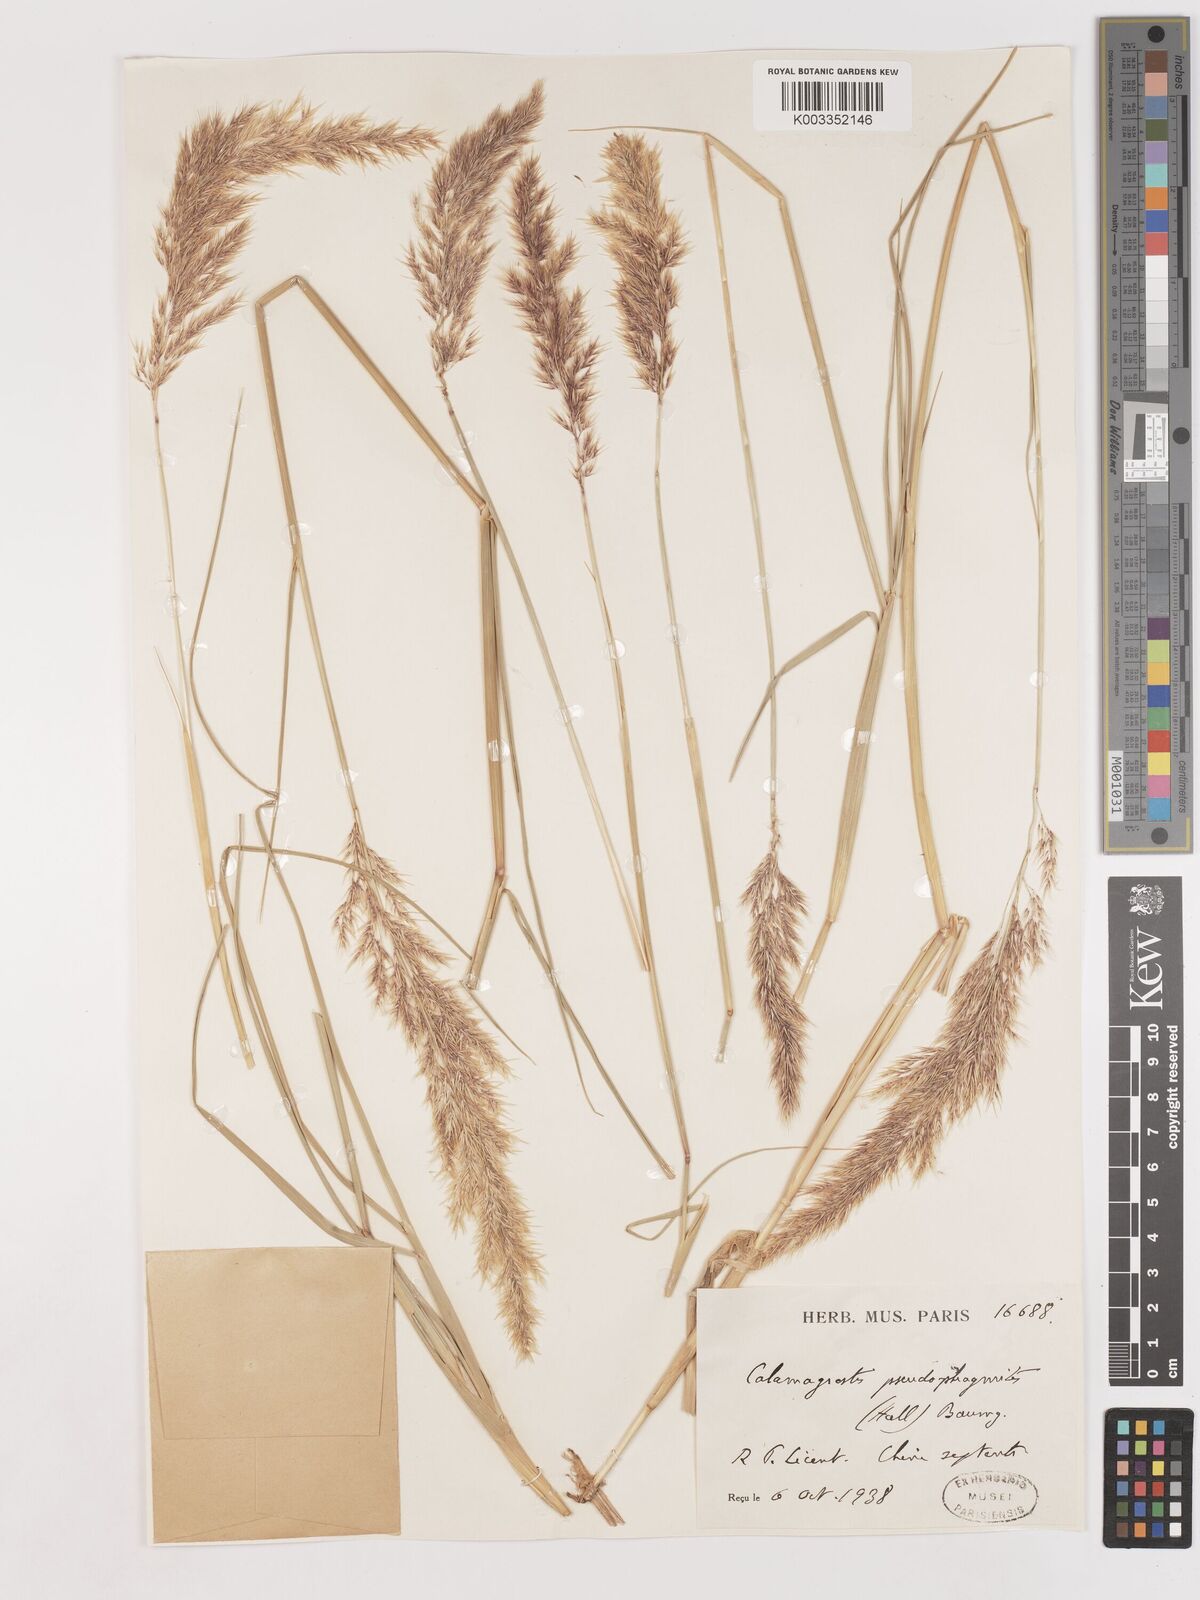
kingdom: Plantae
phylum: Tracheophyta
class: Liliopsida
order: Poales
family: Poaceae
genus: Calamagrostis
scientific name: Calamagrostis pseudophragmites
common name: Coastal small-reed
